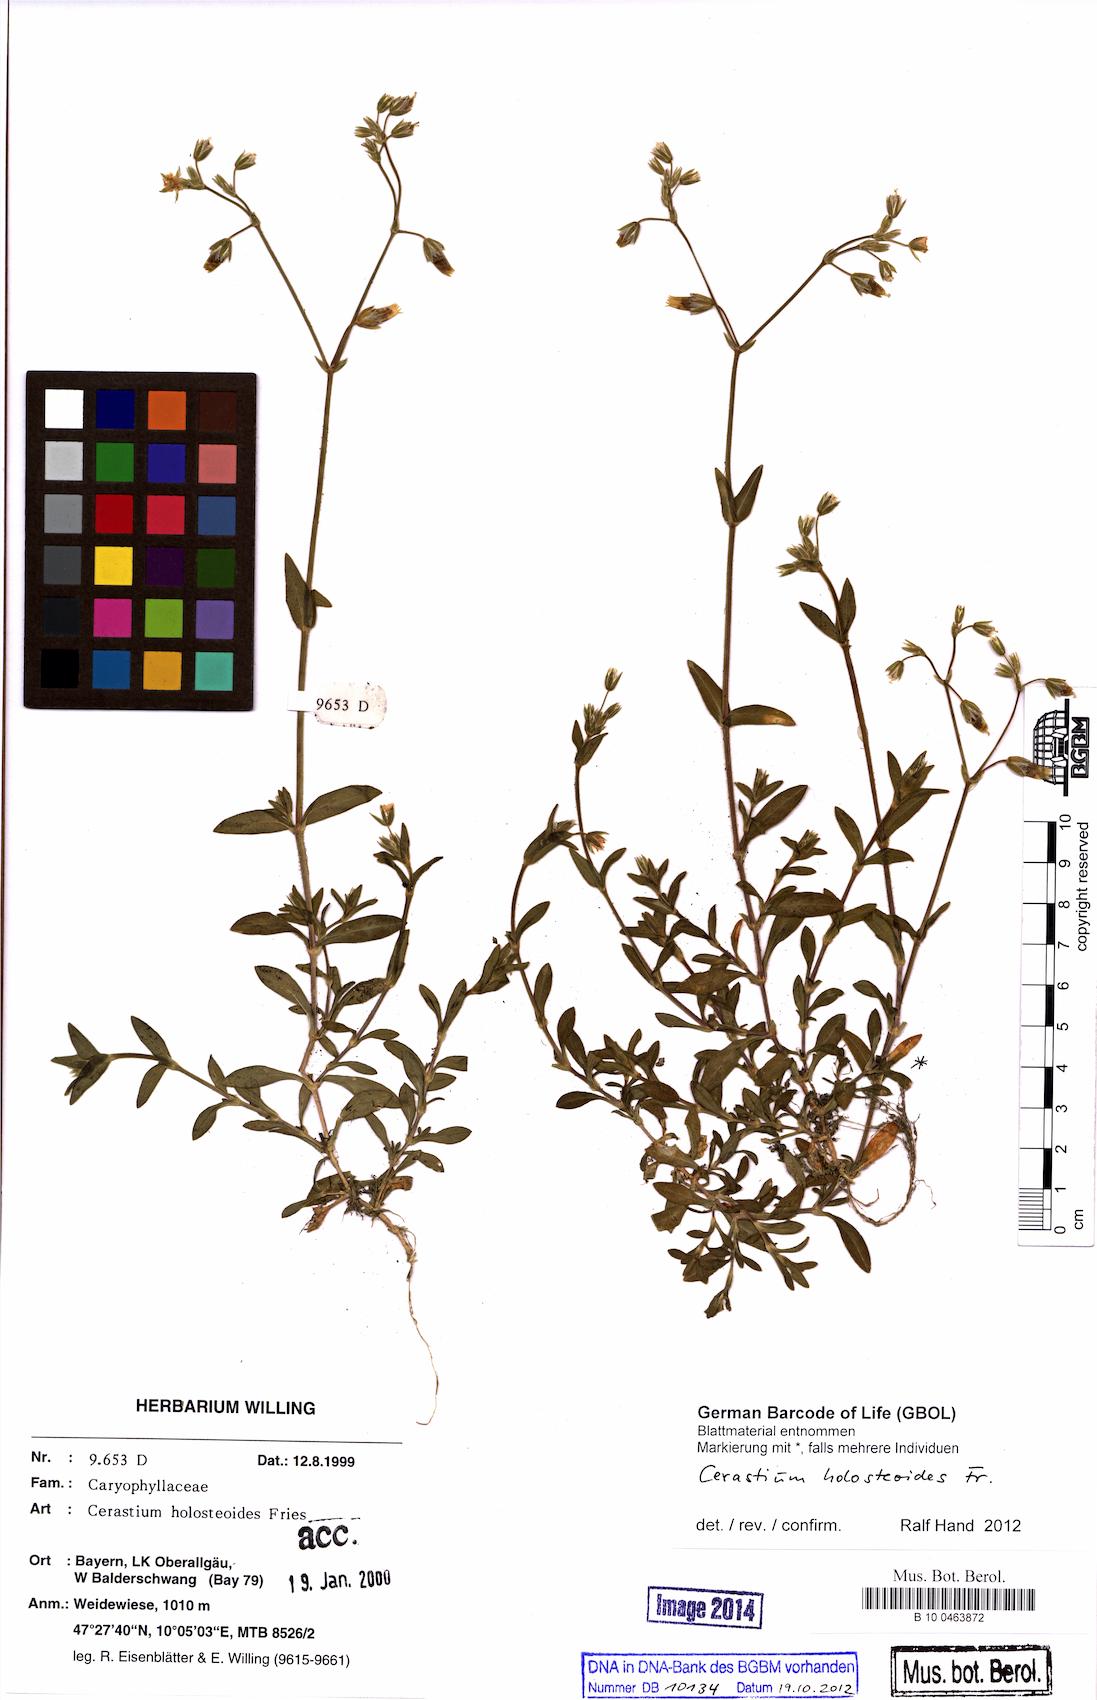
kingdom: Plantae
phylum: Tracheophyta
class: Magnoliopsida
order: Caryophyllales
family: Caryophyllaceae
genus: Cerastium
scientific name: Cerastium holosteoides
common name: Big chickweed
